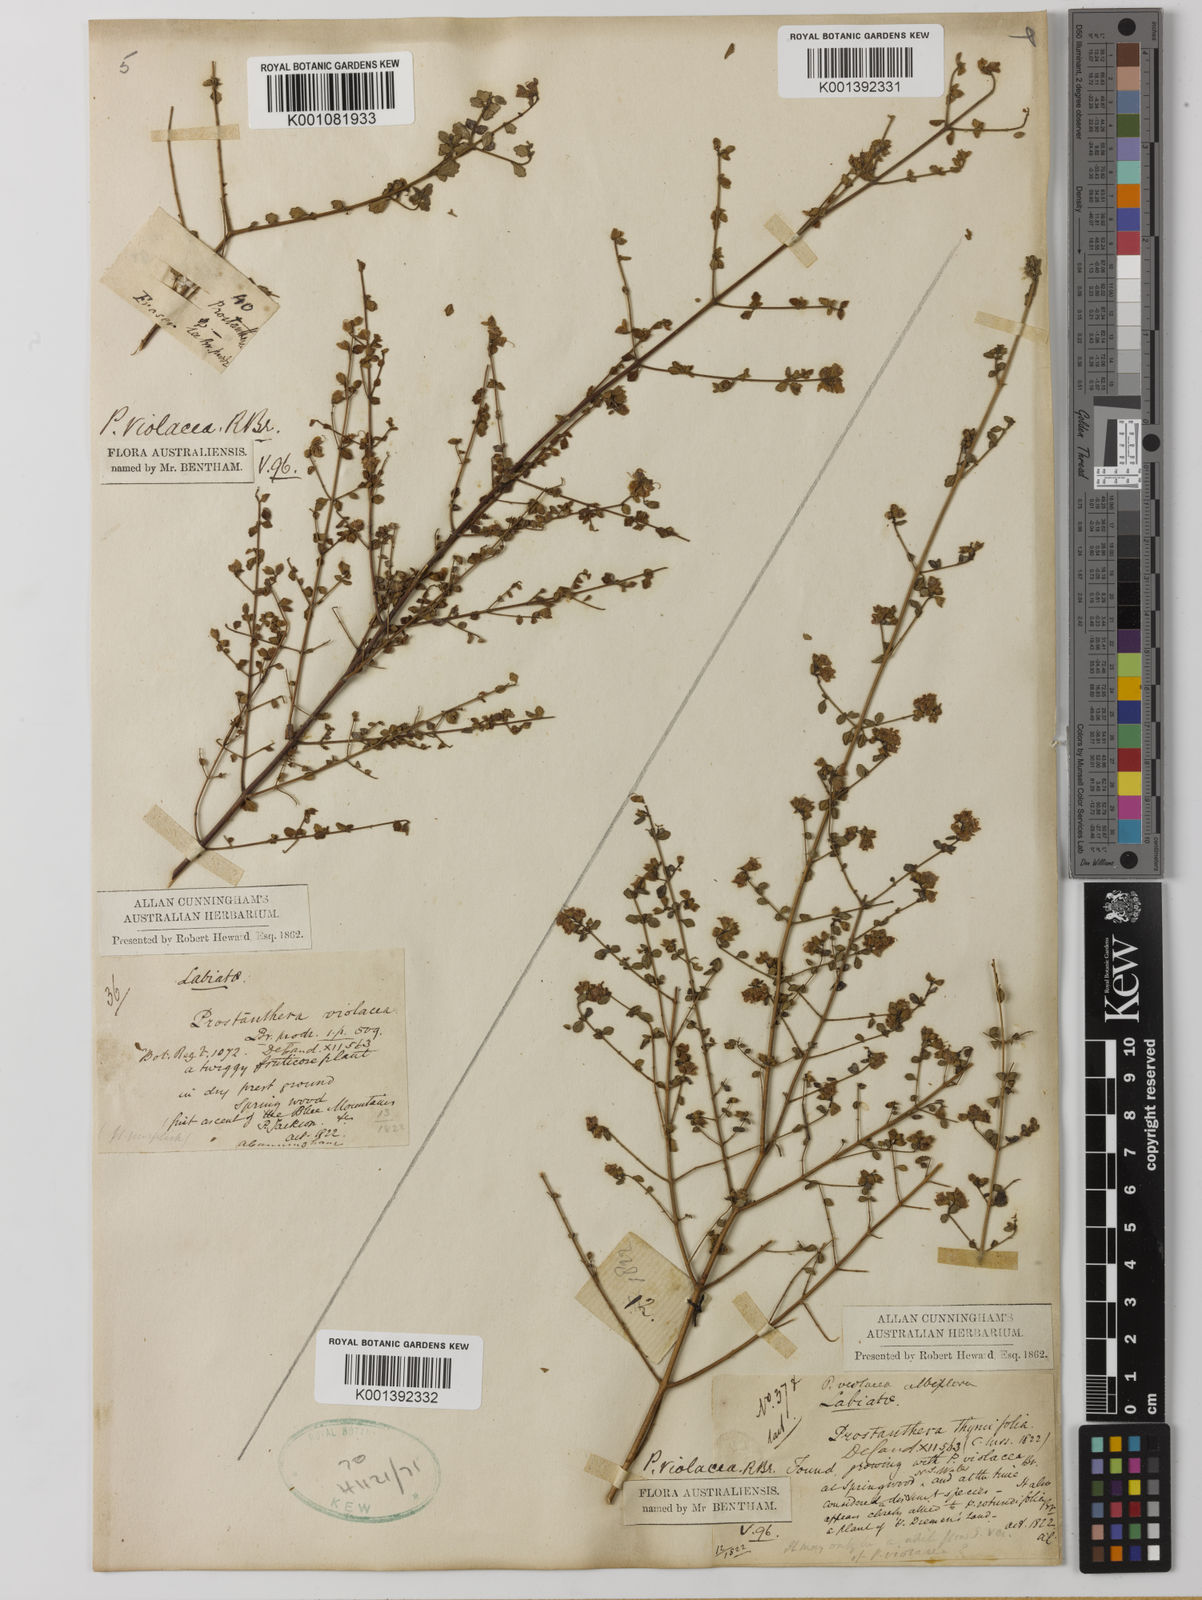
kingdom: Plantae
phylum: Tracheophyta
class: Magnoliopsida
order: Lamiales
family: Lamiaceae
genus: Prostanthera
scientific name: Prostanthera violacea
